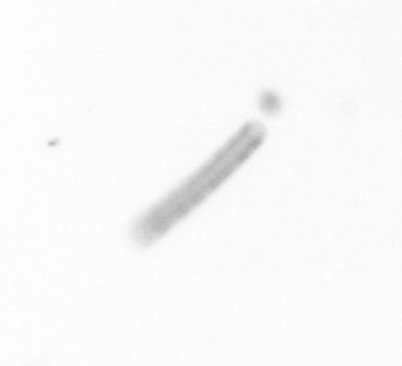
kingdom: Chromista
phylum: Ochrophyta
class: Bacillariophyceae
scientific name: Bacillariophyceae
